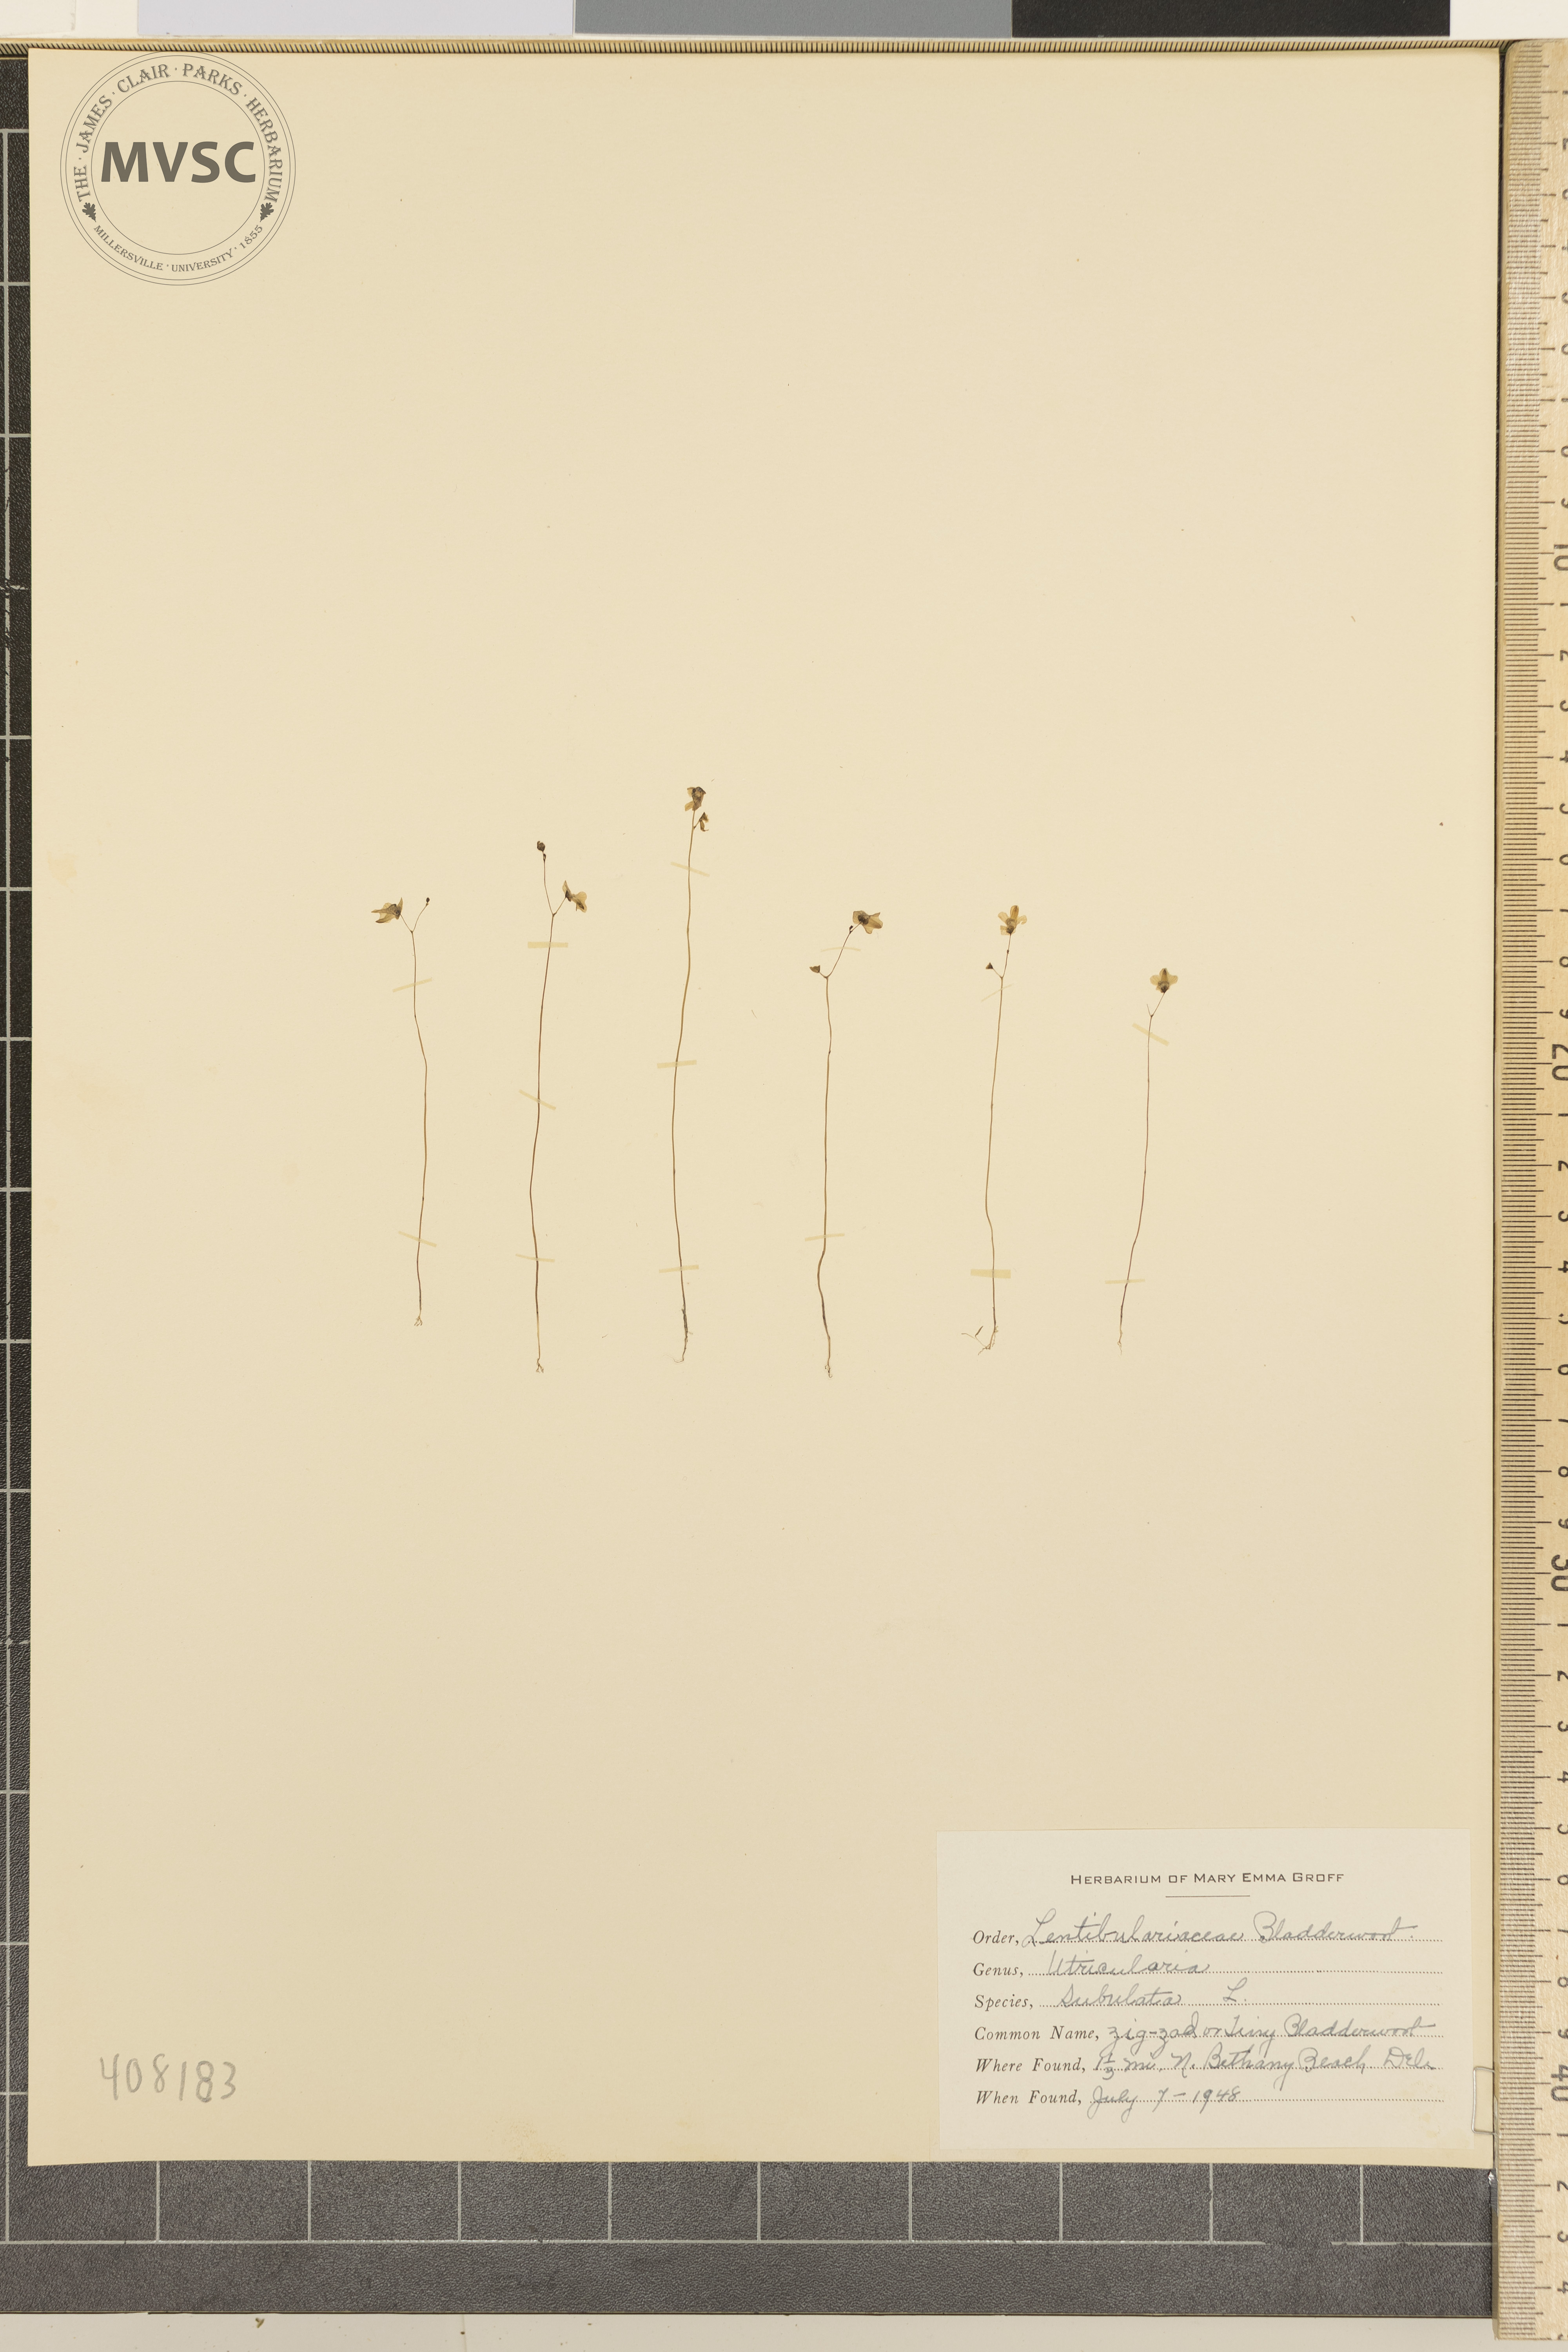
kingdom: Plantae
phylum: Tracheophyta
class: Magnoliopsida
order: Lamiales
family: Lentibulariaceae
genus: Utricularia
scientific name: Utricularia subulata
